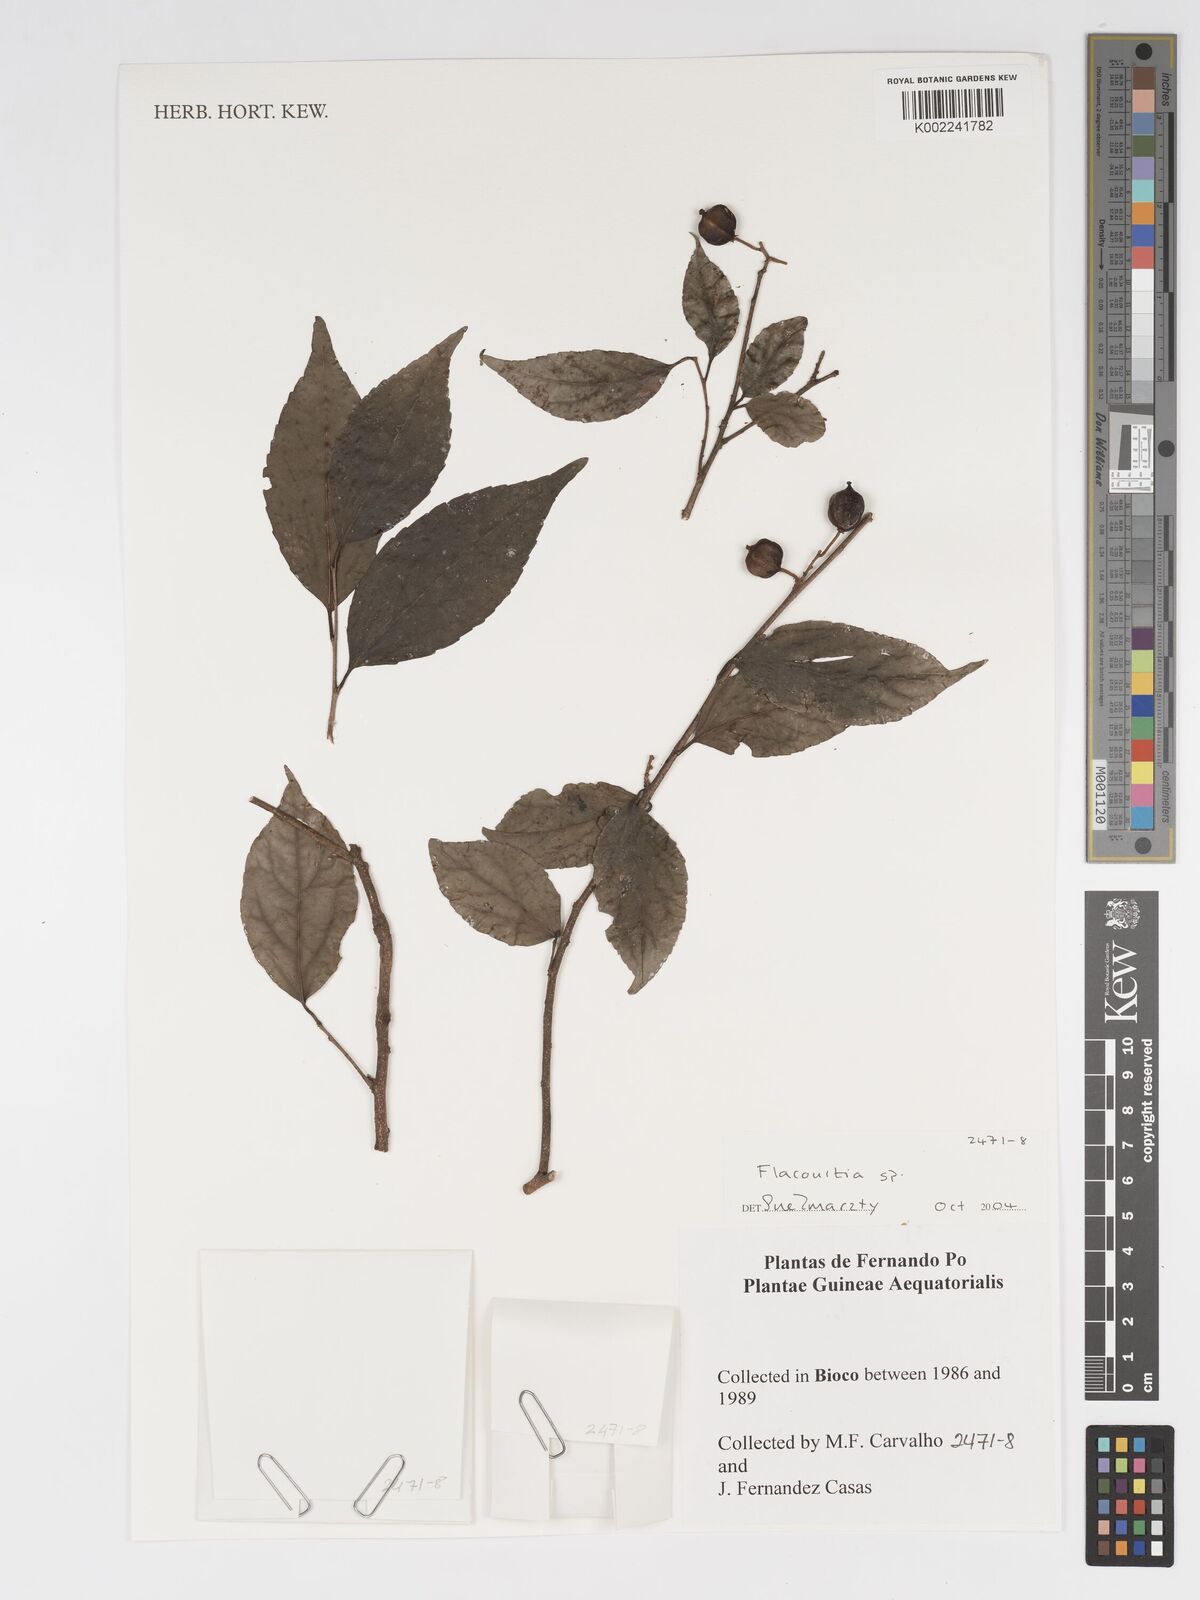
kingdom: Plantae
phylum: Tracheophyta
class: Magnoliopsida
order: Malpighiales
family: Salicaceae
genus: Flacourtia
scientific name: Flacourtia
